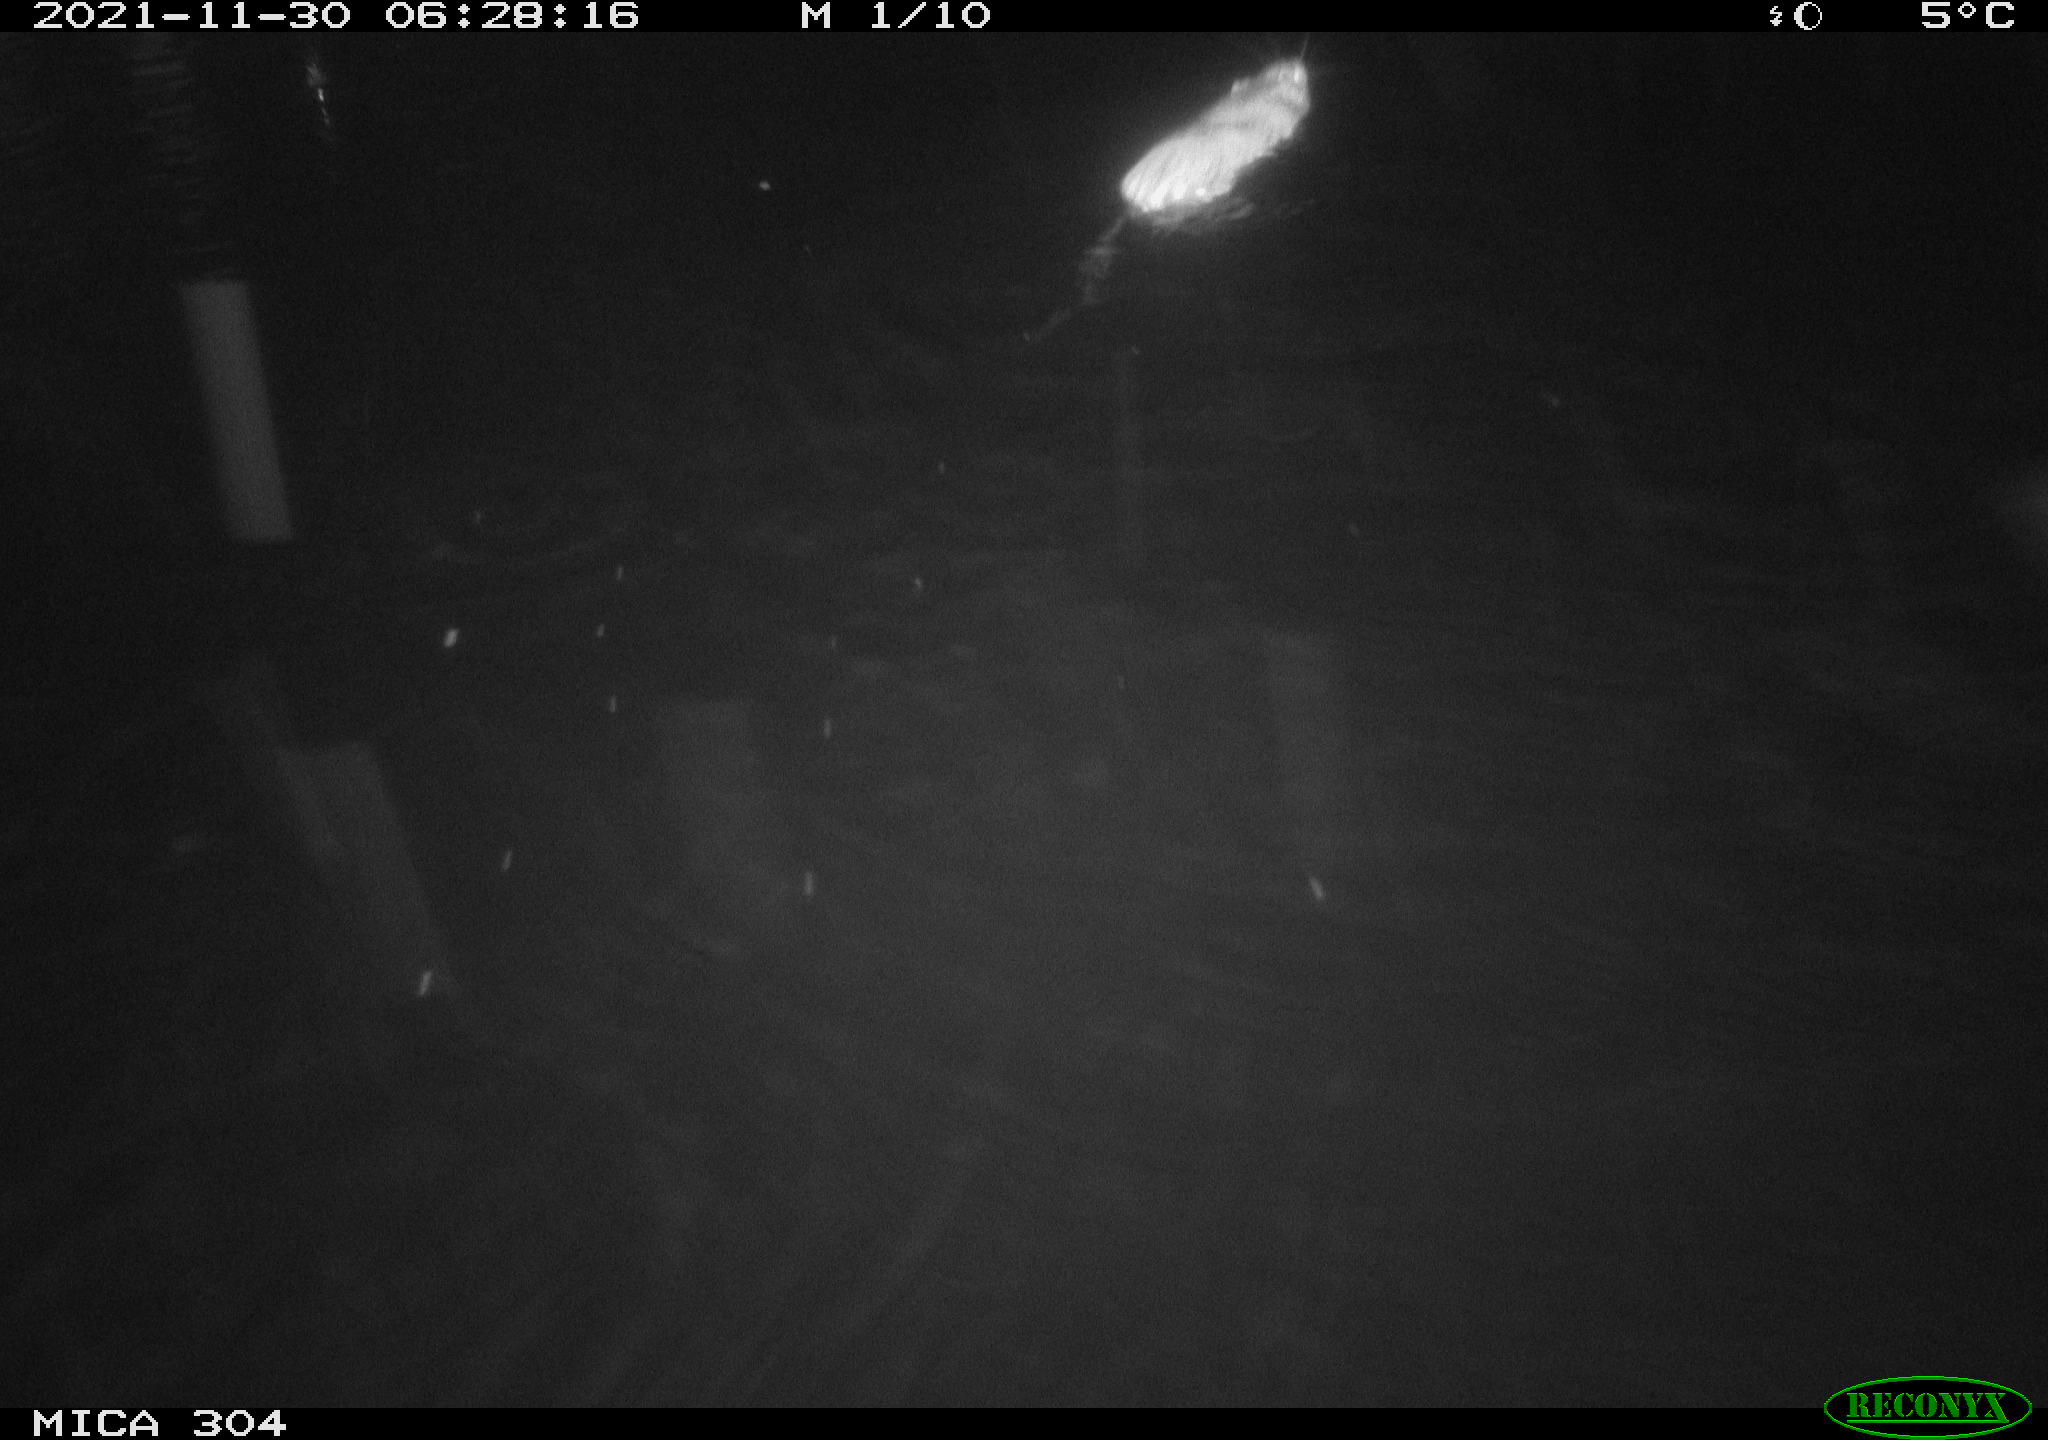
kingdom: Animalia
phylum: Chordata
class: Mammalia
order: Rodentia
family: Muridae
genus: Rattus
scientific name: Rattus norvegicus
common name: Brown rat
